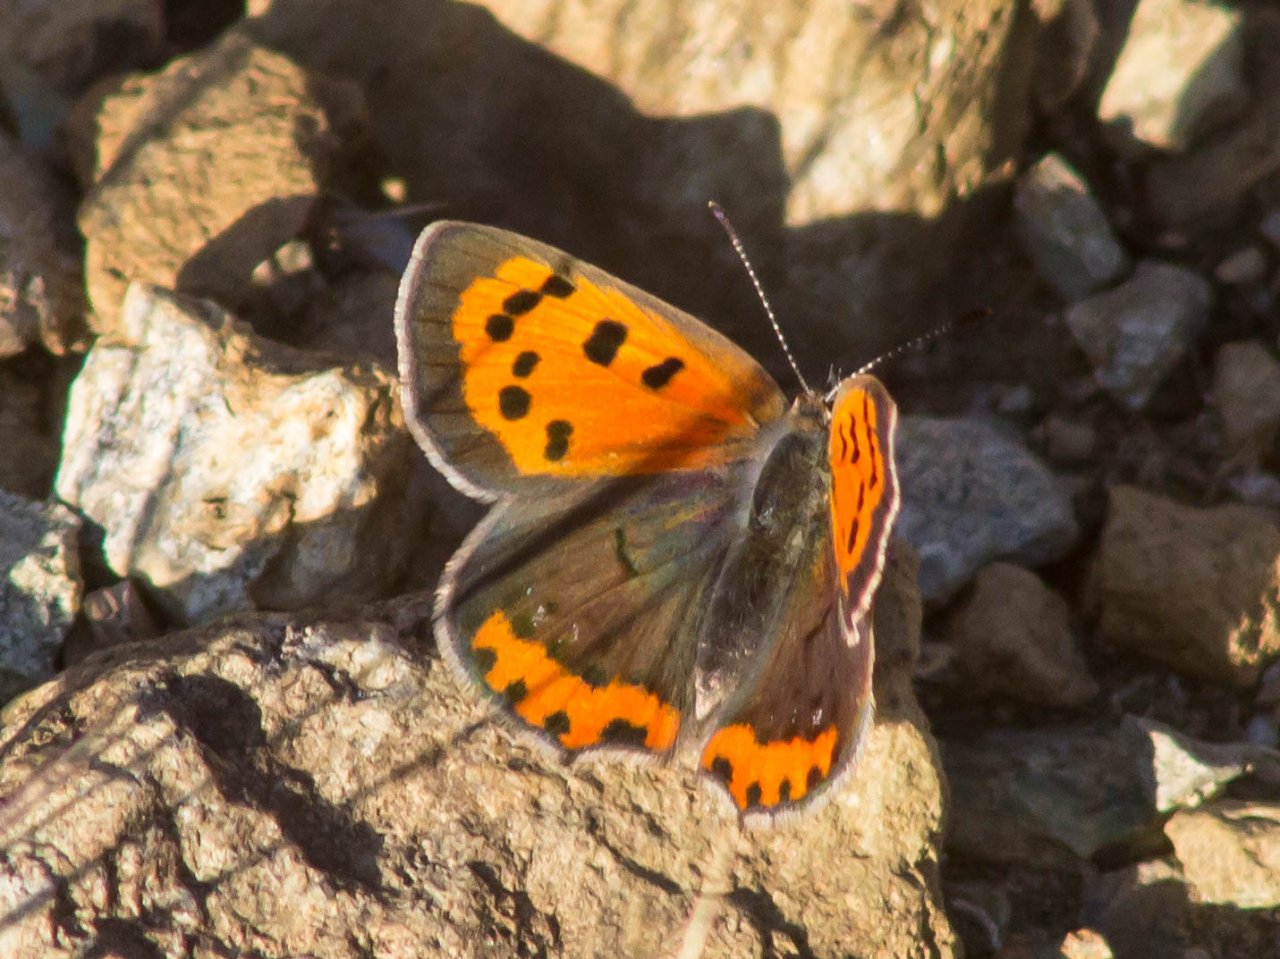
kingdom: Animalia
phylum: Arthropoda
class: Insecta
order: Lepidoptera
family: Lycaenidae
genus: Lycaena
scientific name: Lycaena phlaeas
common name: American Copper
